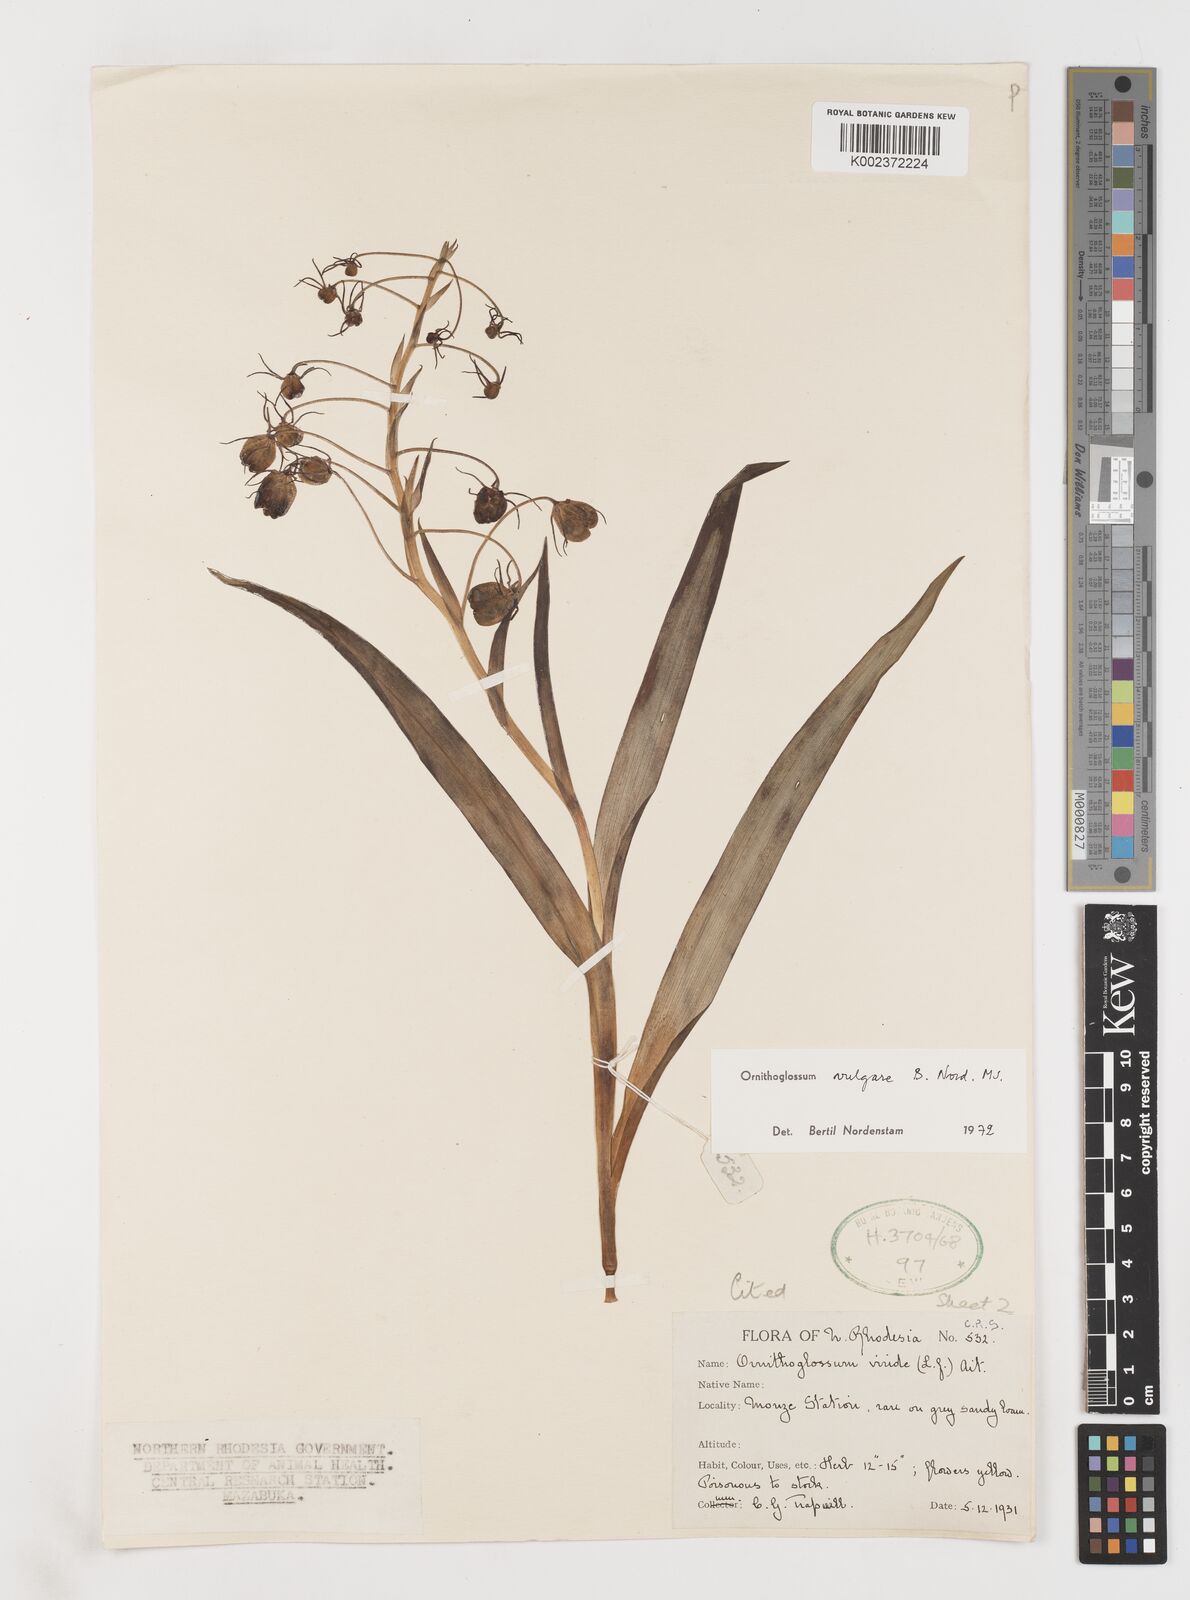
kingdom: Plantae
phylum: Tracheophyta
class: Liliopsida
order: Liliales
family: Colchicaceae
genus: Ornithoglossum
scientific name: Ornithoglossum vulgare
